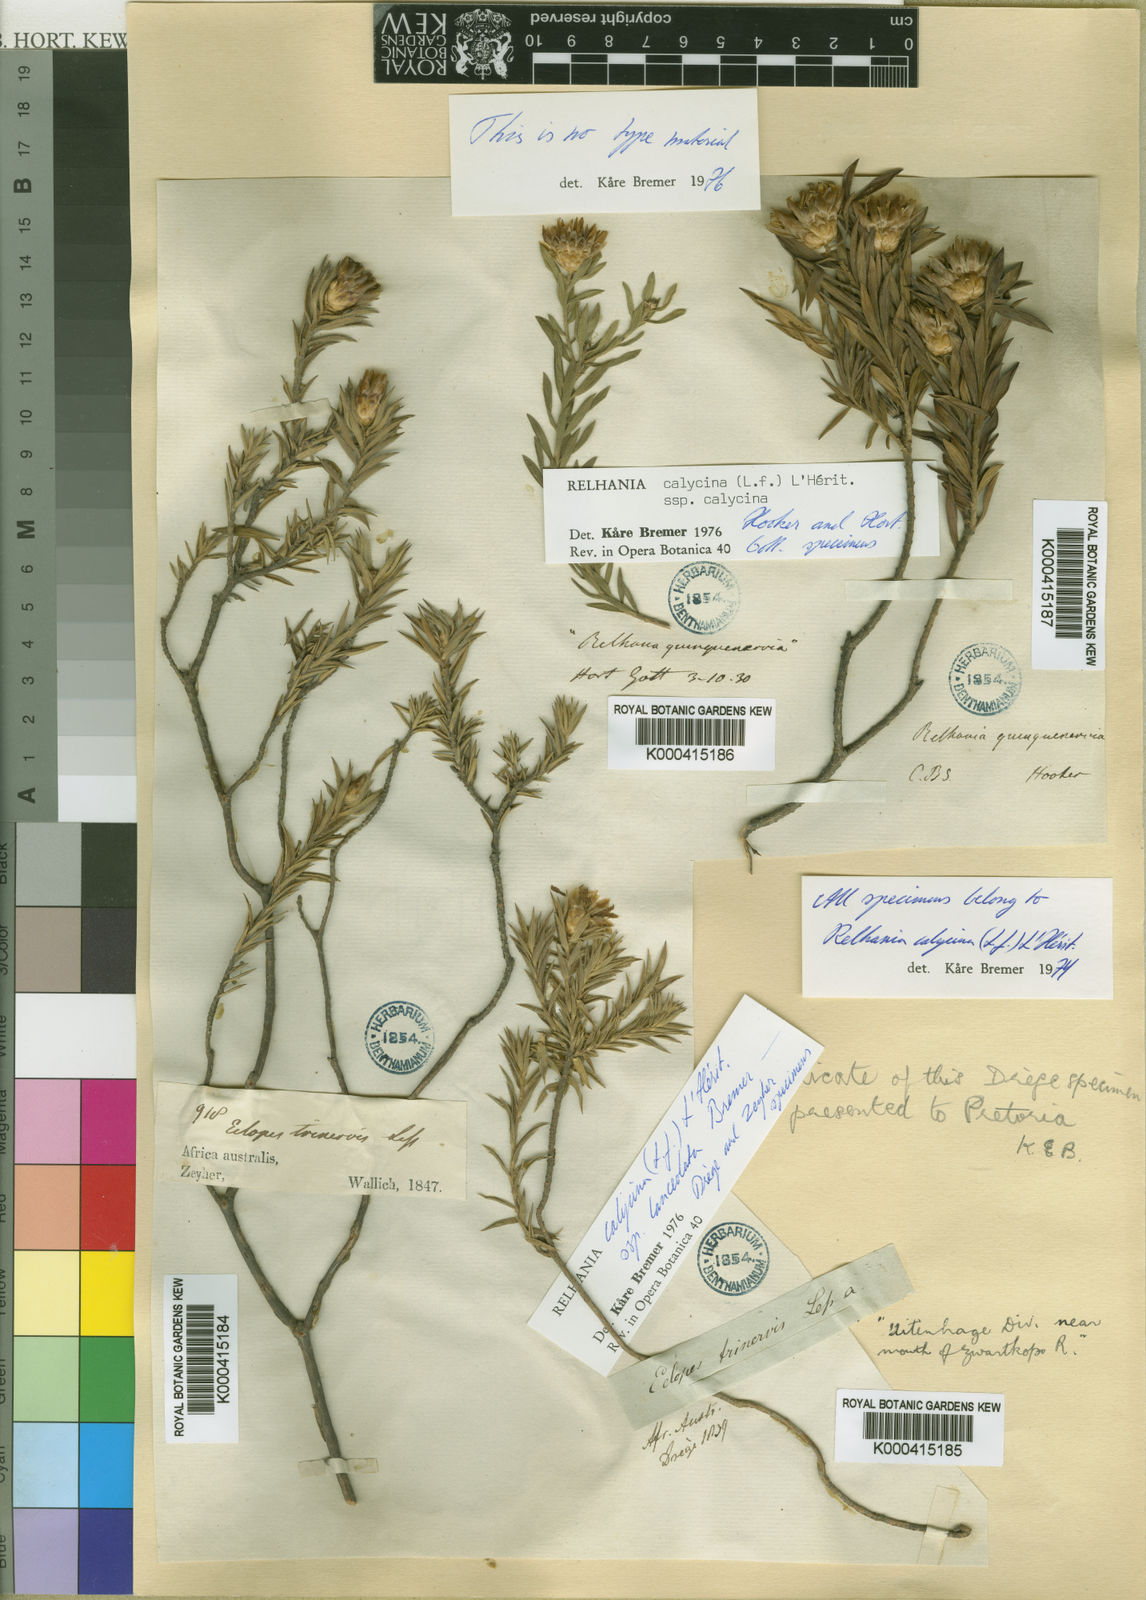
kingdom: Plantae
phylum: Tracheophyta
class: Magnoliopsida
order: Asterales
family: Asteraceae
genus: Oedera
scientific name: Oedera Relhania spec
